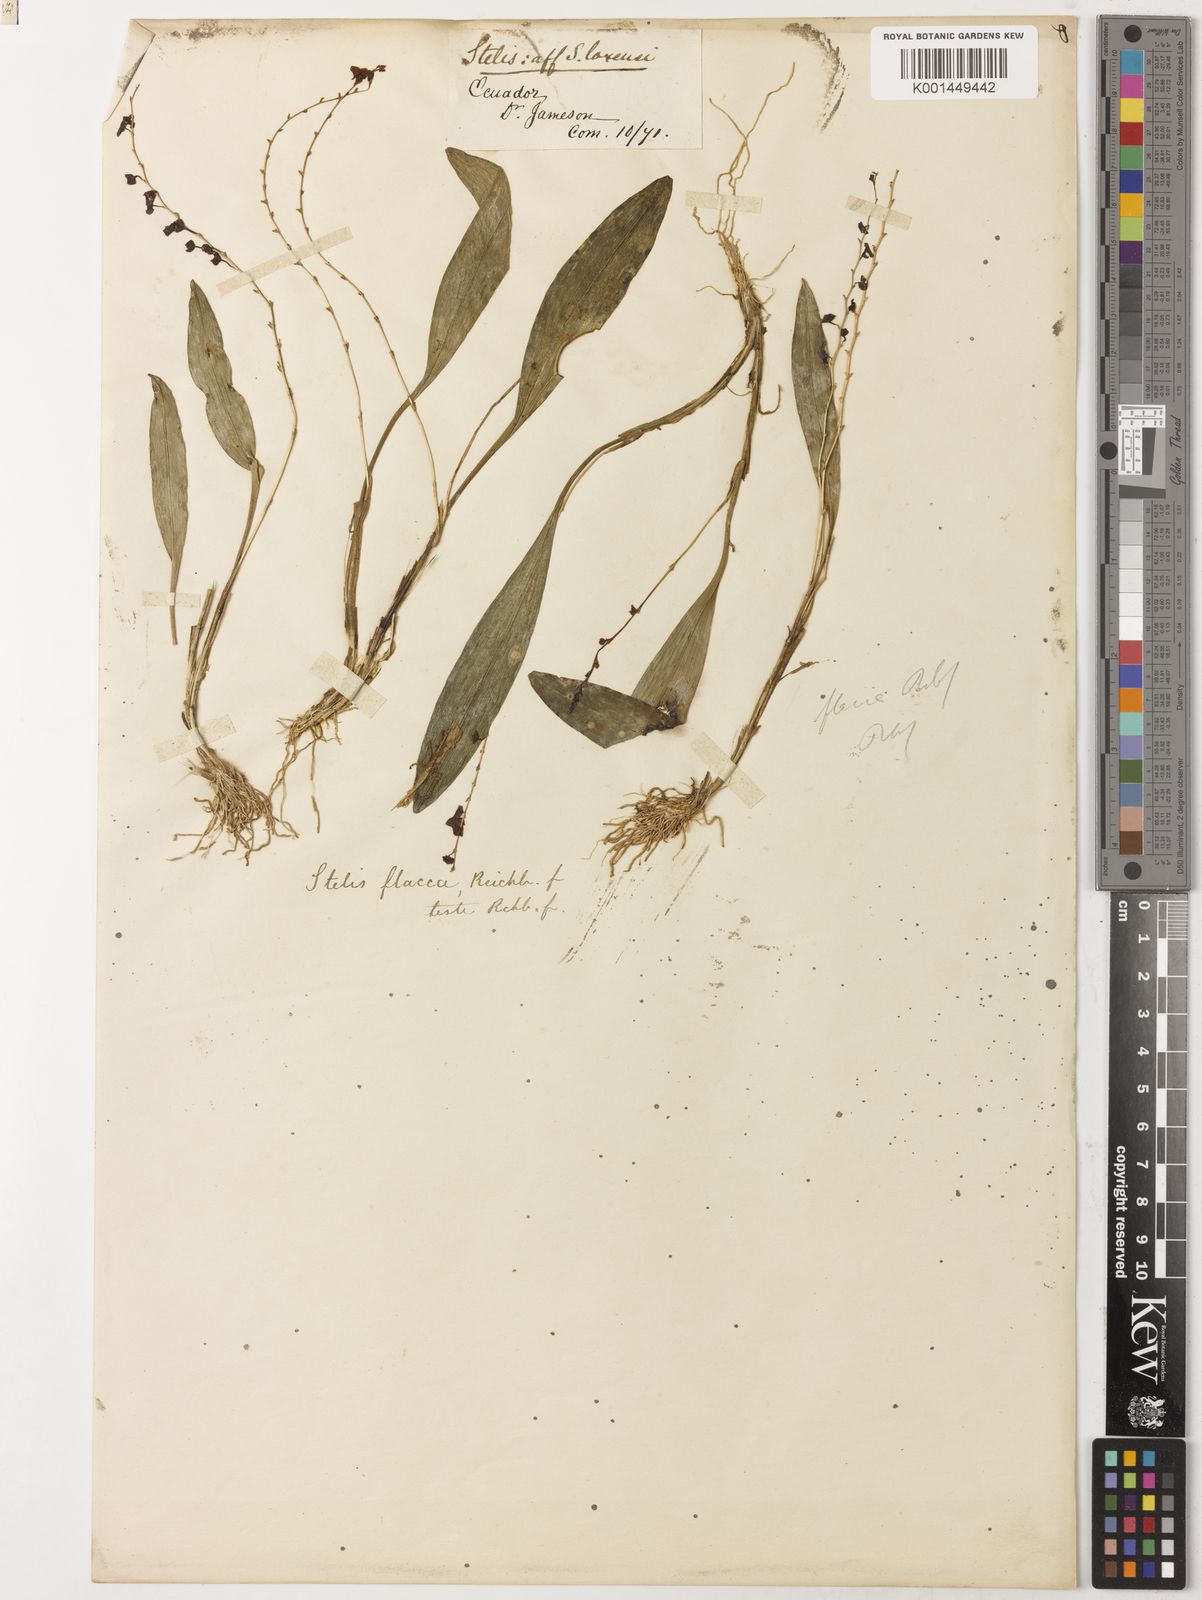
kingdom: Plantae
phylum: Tracheophyta
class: Liliopsida
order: Asparagales
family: Orchidaceae
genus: Stelis
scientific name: Stelis flacca
